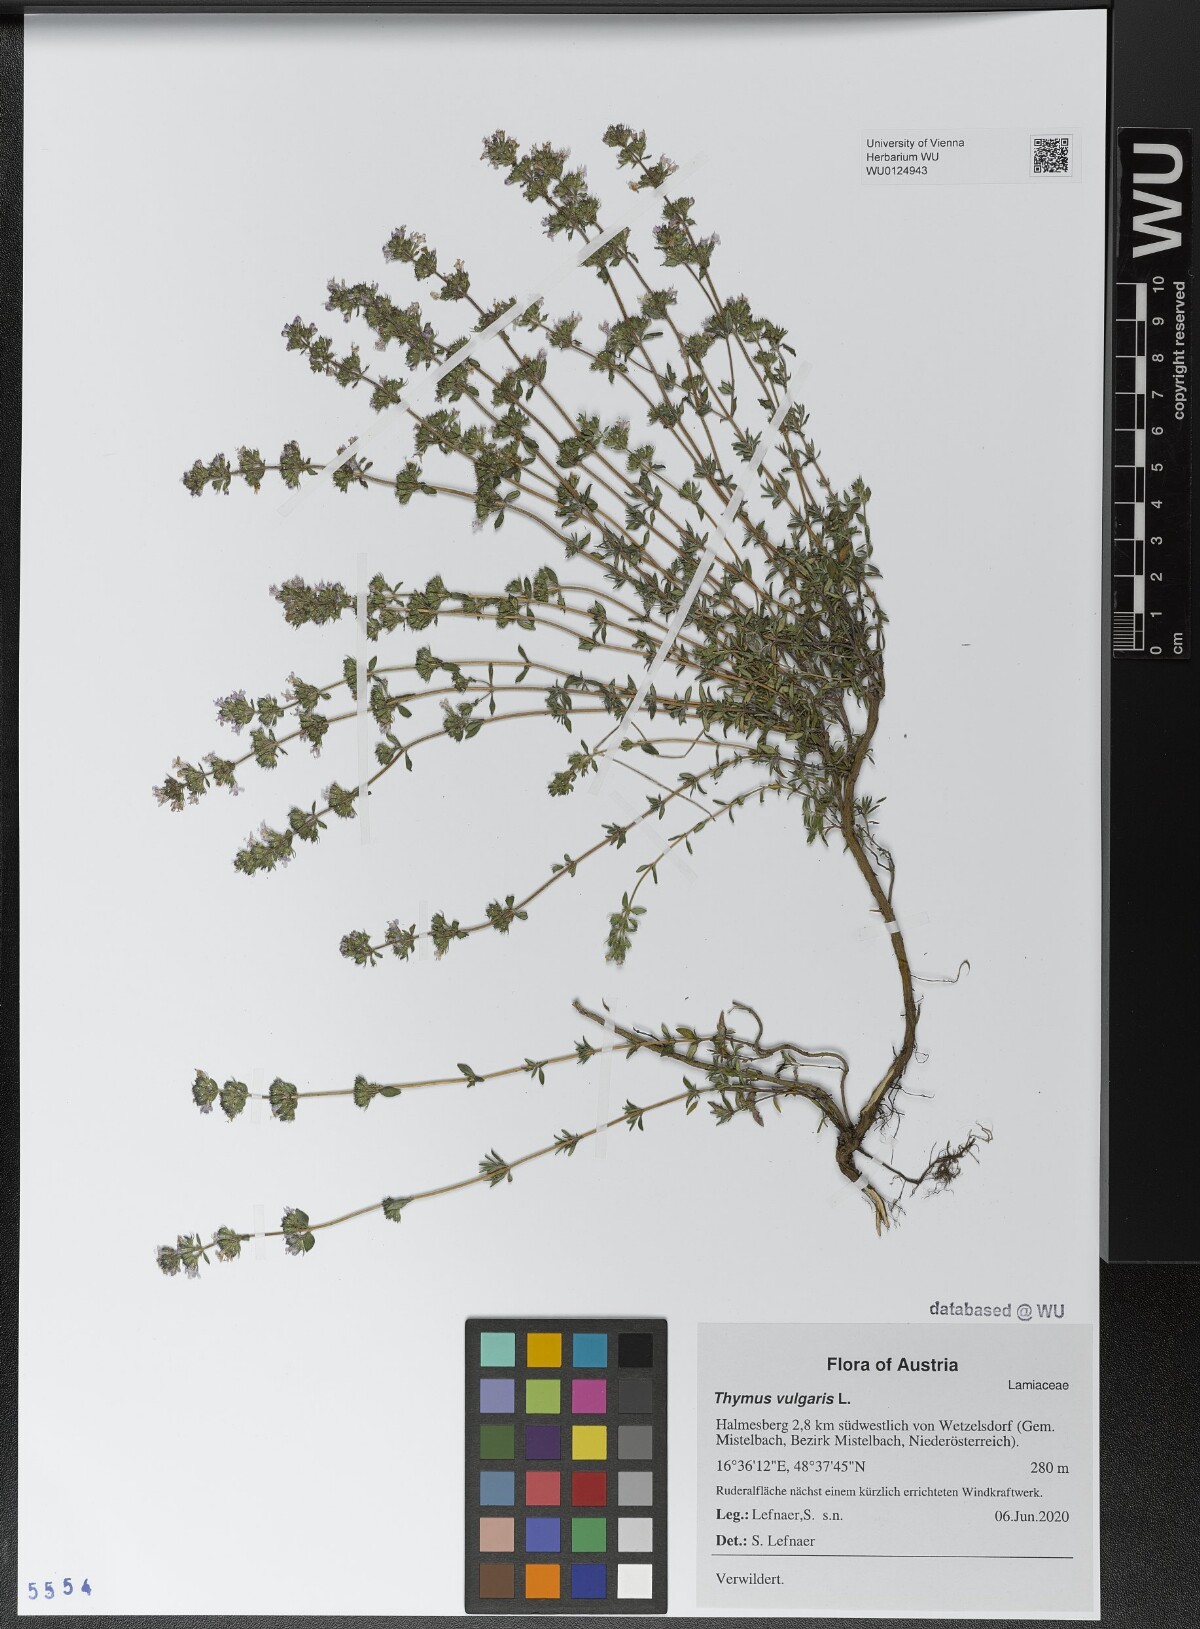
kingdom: Plantae
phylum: Tracheophyta
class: Magnoliopsida
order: Lamiales
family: Lamiaceae
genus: Thymus
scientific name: Thymus vulgaris
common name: Garden thyme
